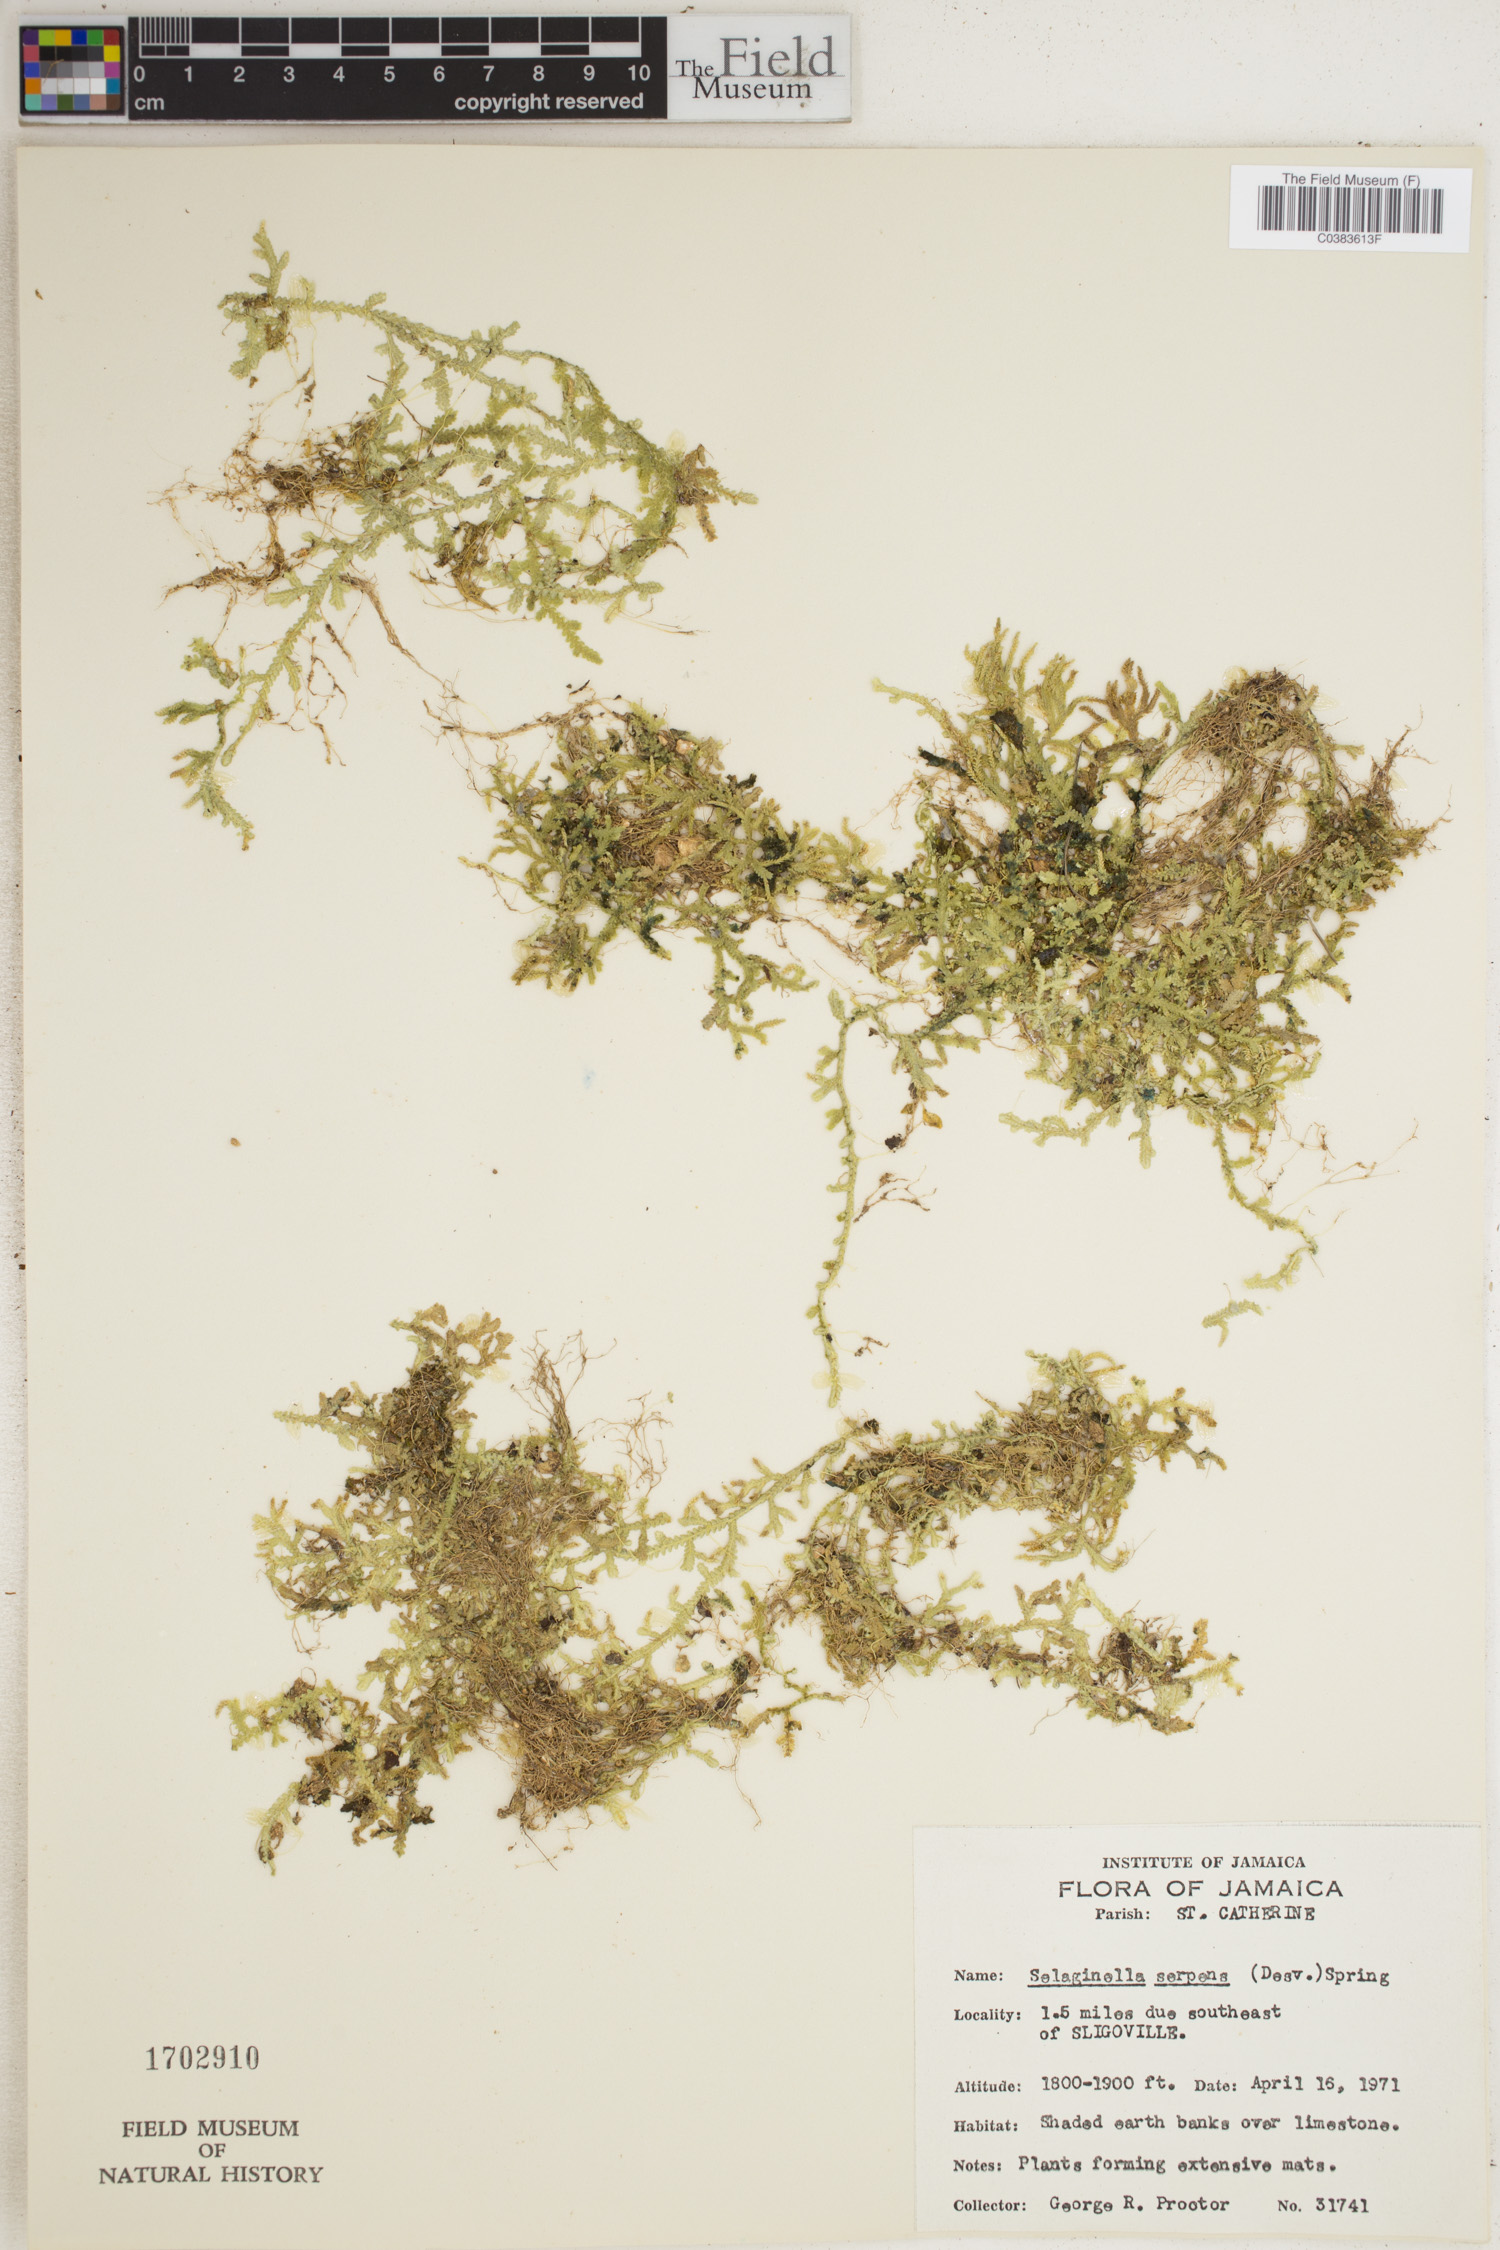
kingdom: Plantae
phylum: Tracheophyta
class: Lycopodiopsida
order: Selaginellales
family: Selaginellaceae
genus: Selaginella
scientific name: Selaginella serpens
